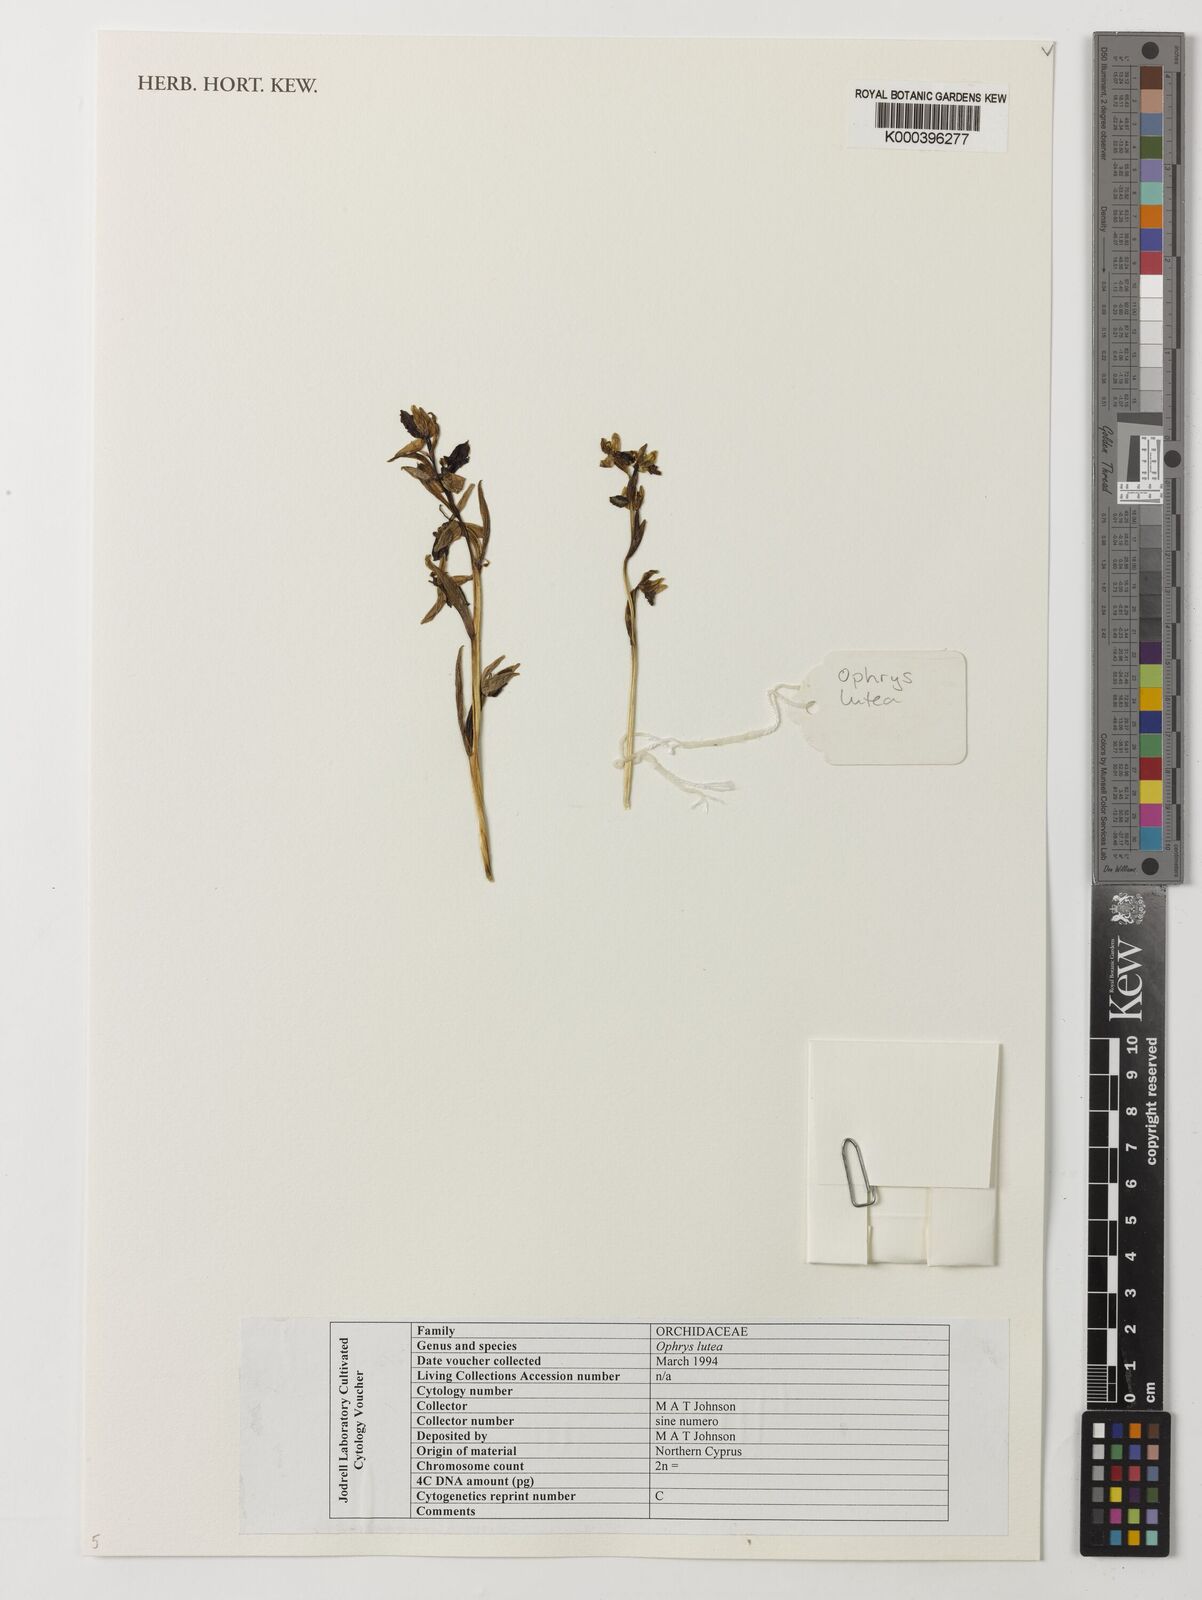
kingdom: Plantae
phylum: Tracheophyta
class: Liliopsida
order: Asparagales
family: Orchidaceae
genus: Ophrys
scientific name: Ophrys
